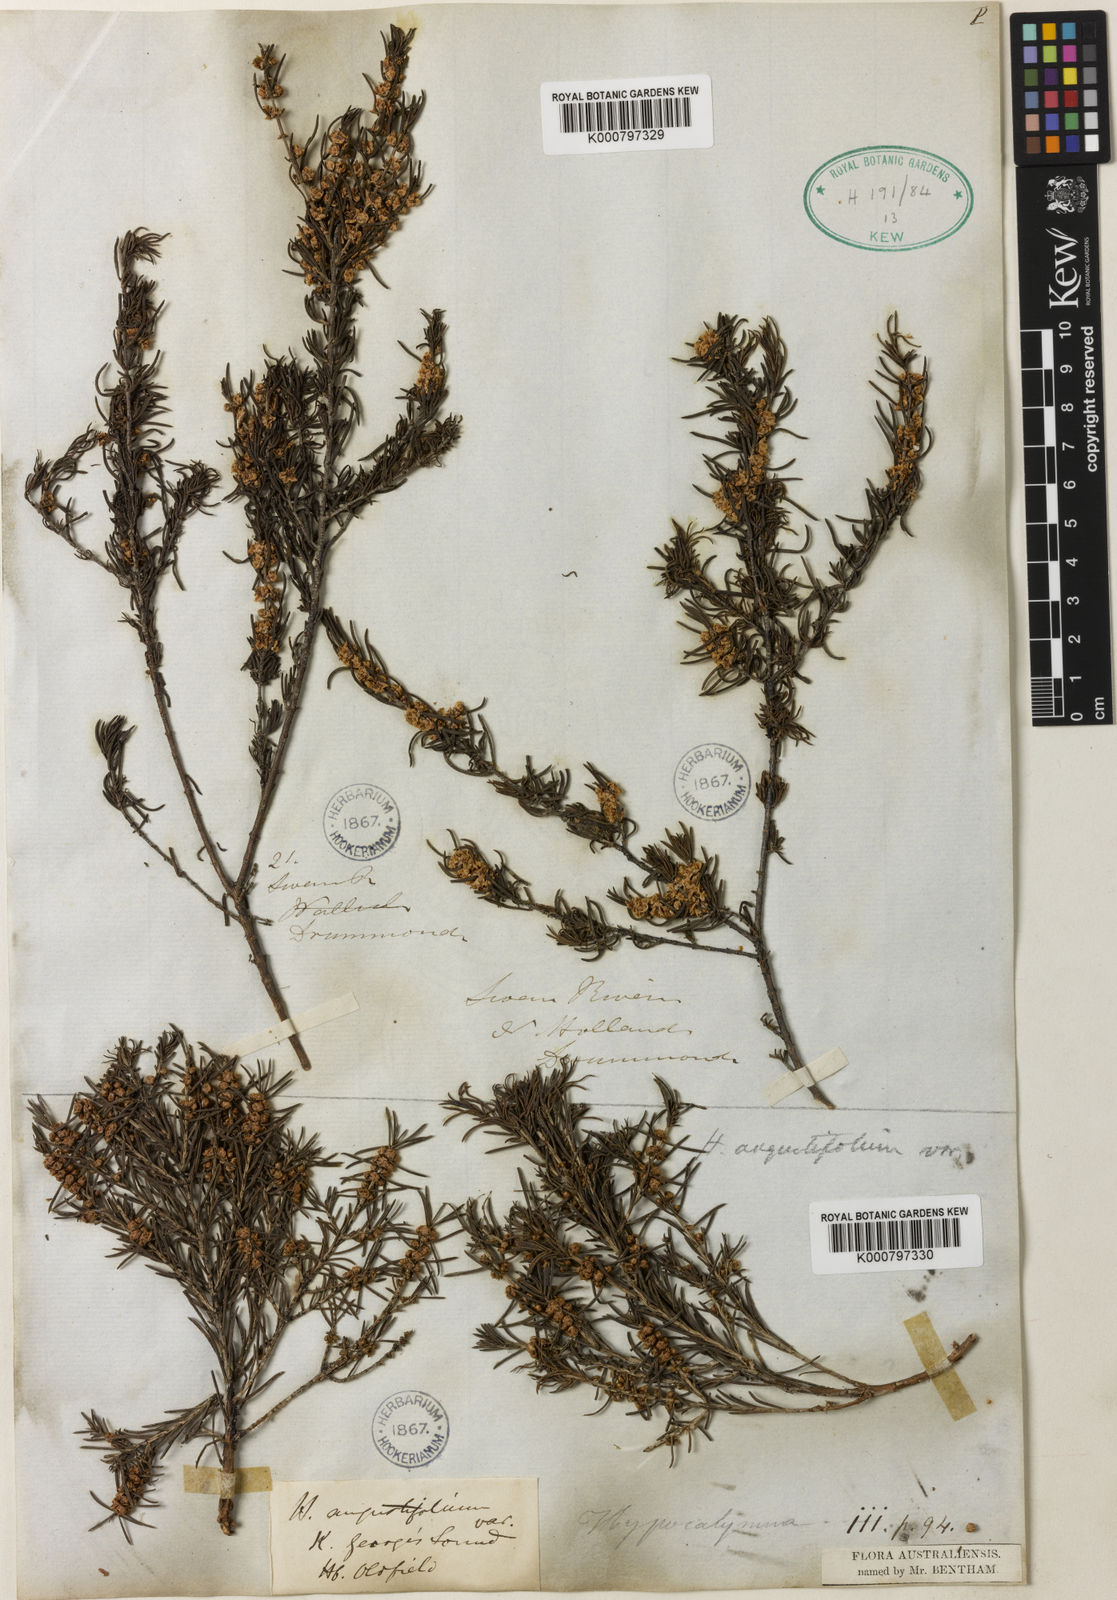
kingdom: Plantae
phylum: Tracheophyta
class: Magnoliopsida
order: Myrtales
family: Myrtaceae
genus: Hypocalymma
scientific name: Hypocalymma angustifolium
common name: White myrtle
